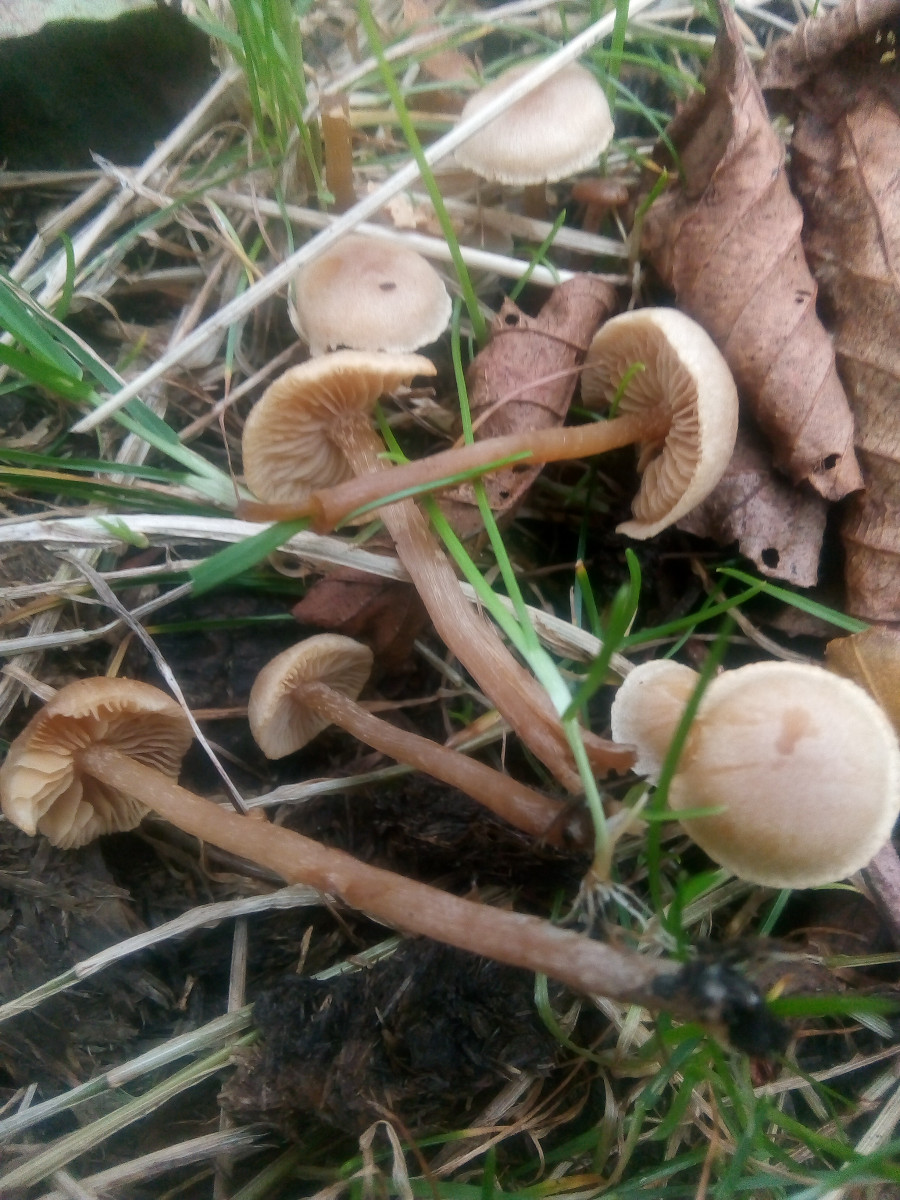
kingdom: Fungi
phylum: Basidiomycota
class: Agaricomycetes
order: Agaricales
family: Hymenogastraceae
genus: Naucoria
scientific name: Naucoria escharioides
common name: lys elle-knaphat
